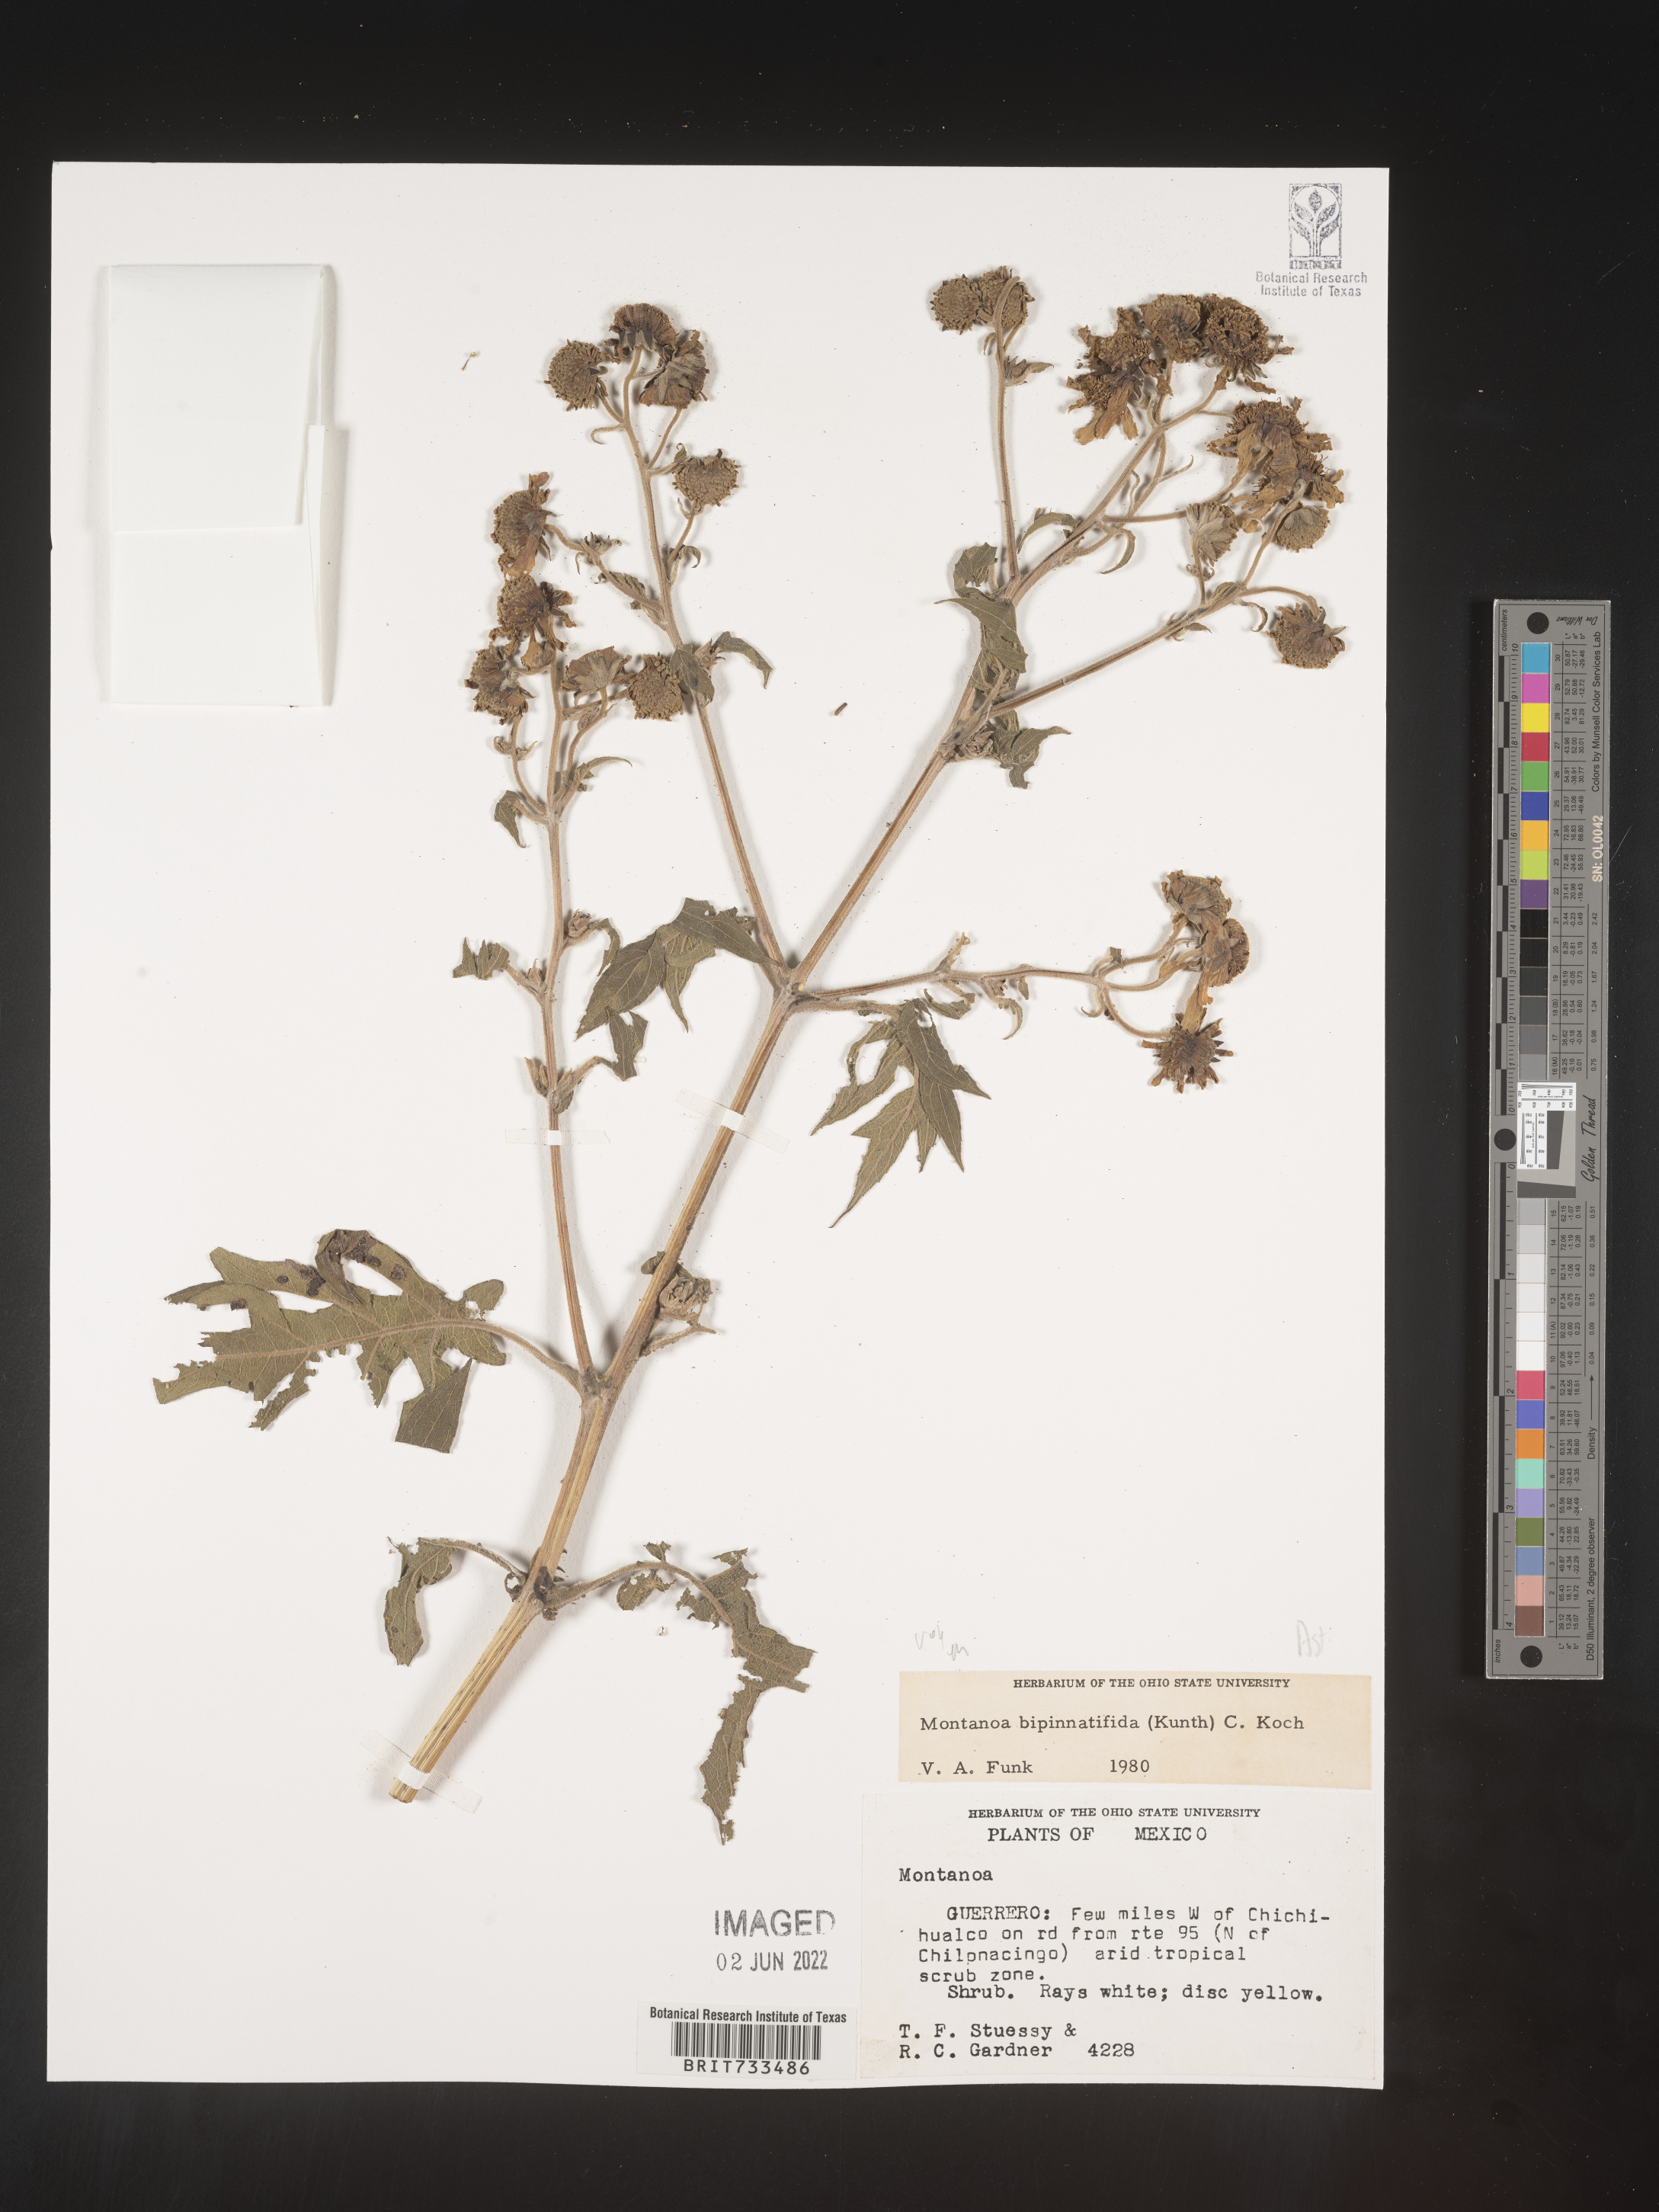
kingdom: Plantae
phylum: Tracheophyta
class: Magnoliopsida
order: Asterales
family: Asteraceae
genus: Montanoa
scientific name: Montanoa
